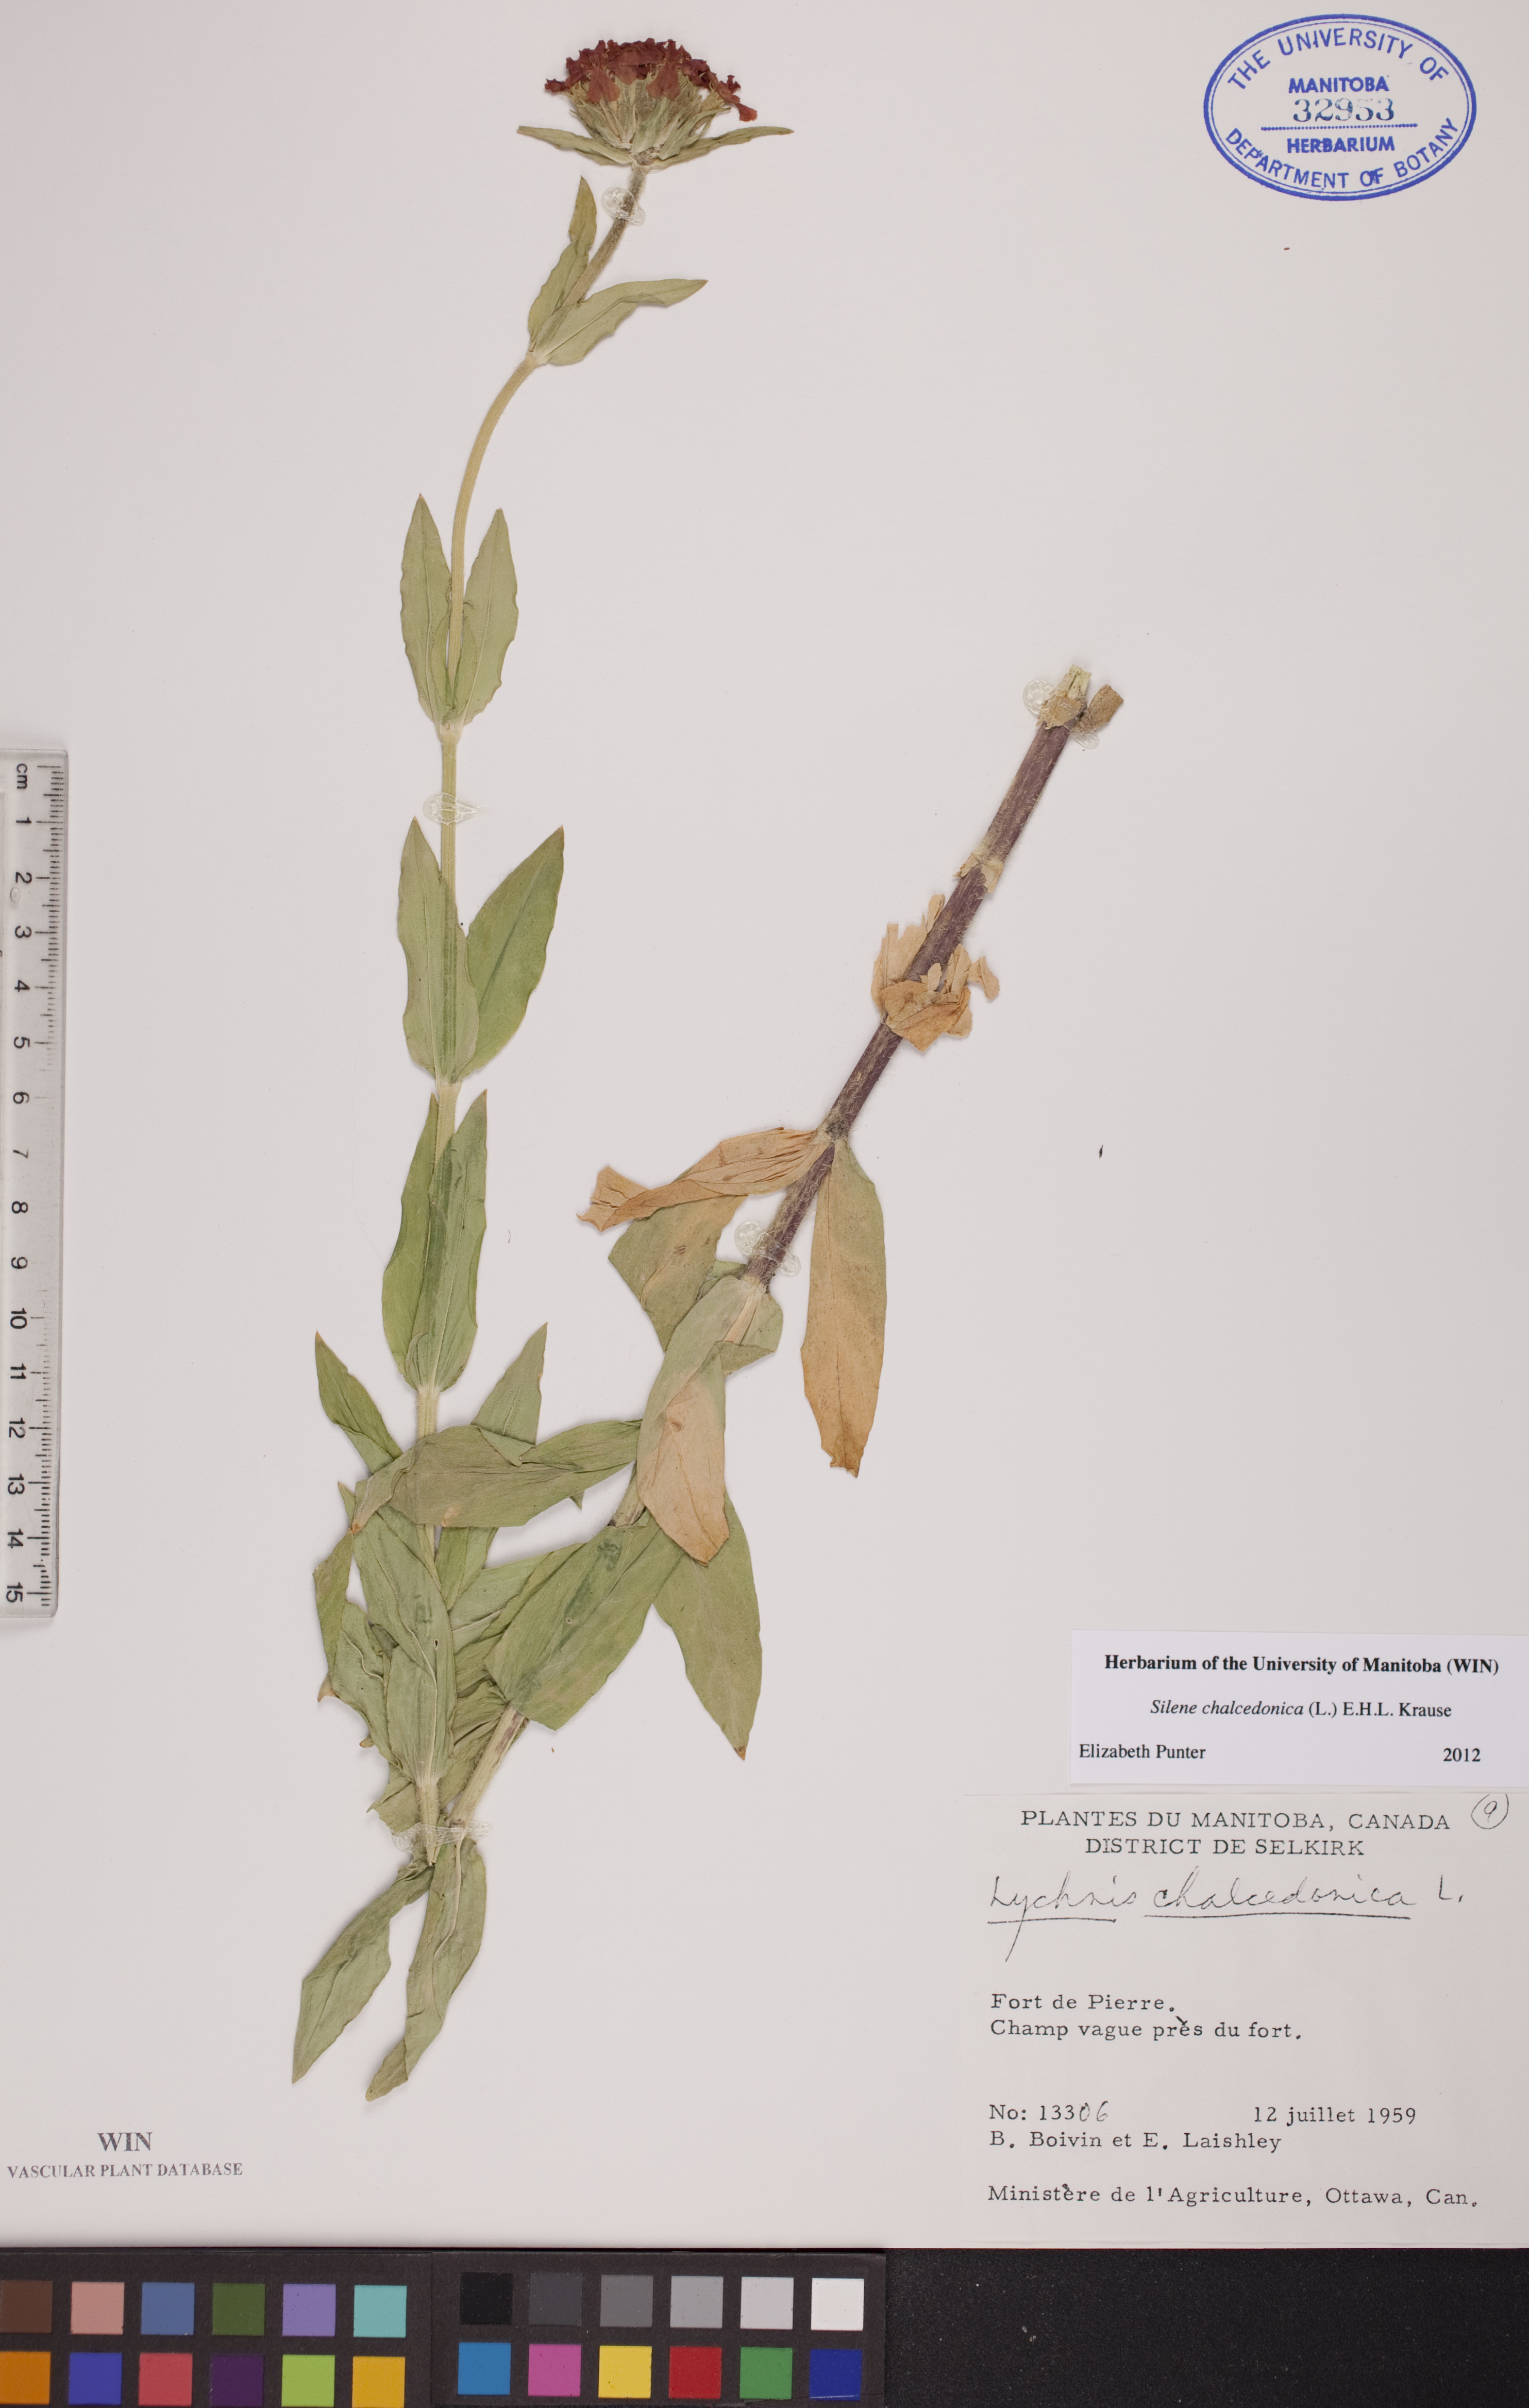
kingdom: Plantae
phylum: Tracheophyta
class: Magnoliopsida
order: Caryophyllales
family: Caryophyllaceae
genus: Silene
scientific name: Silene chalcedonica
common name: Maltese-cross
